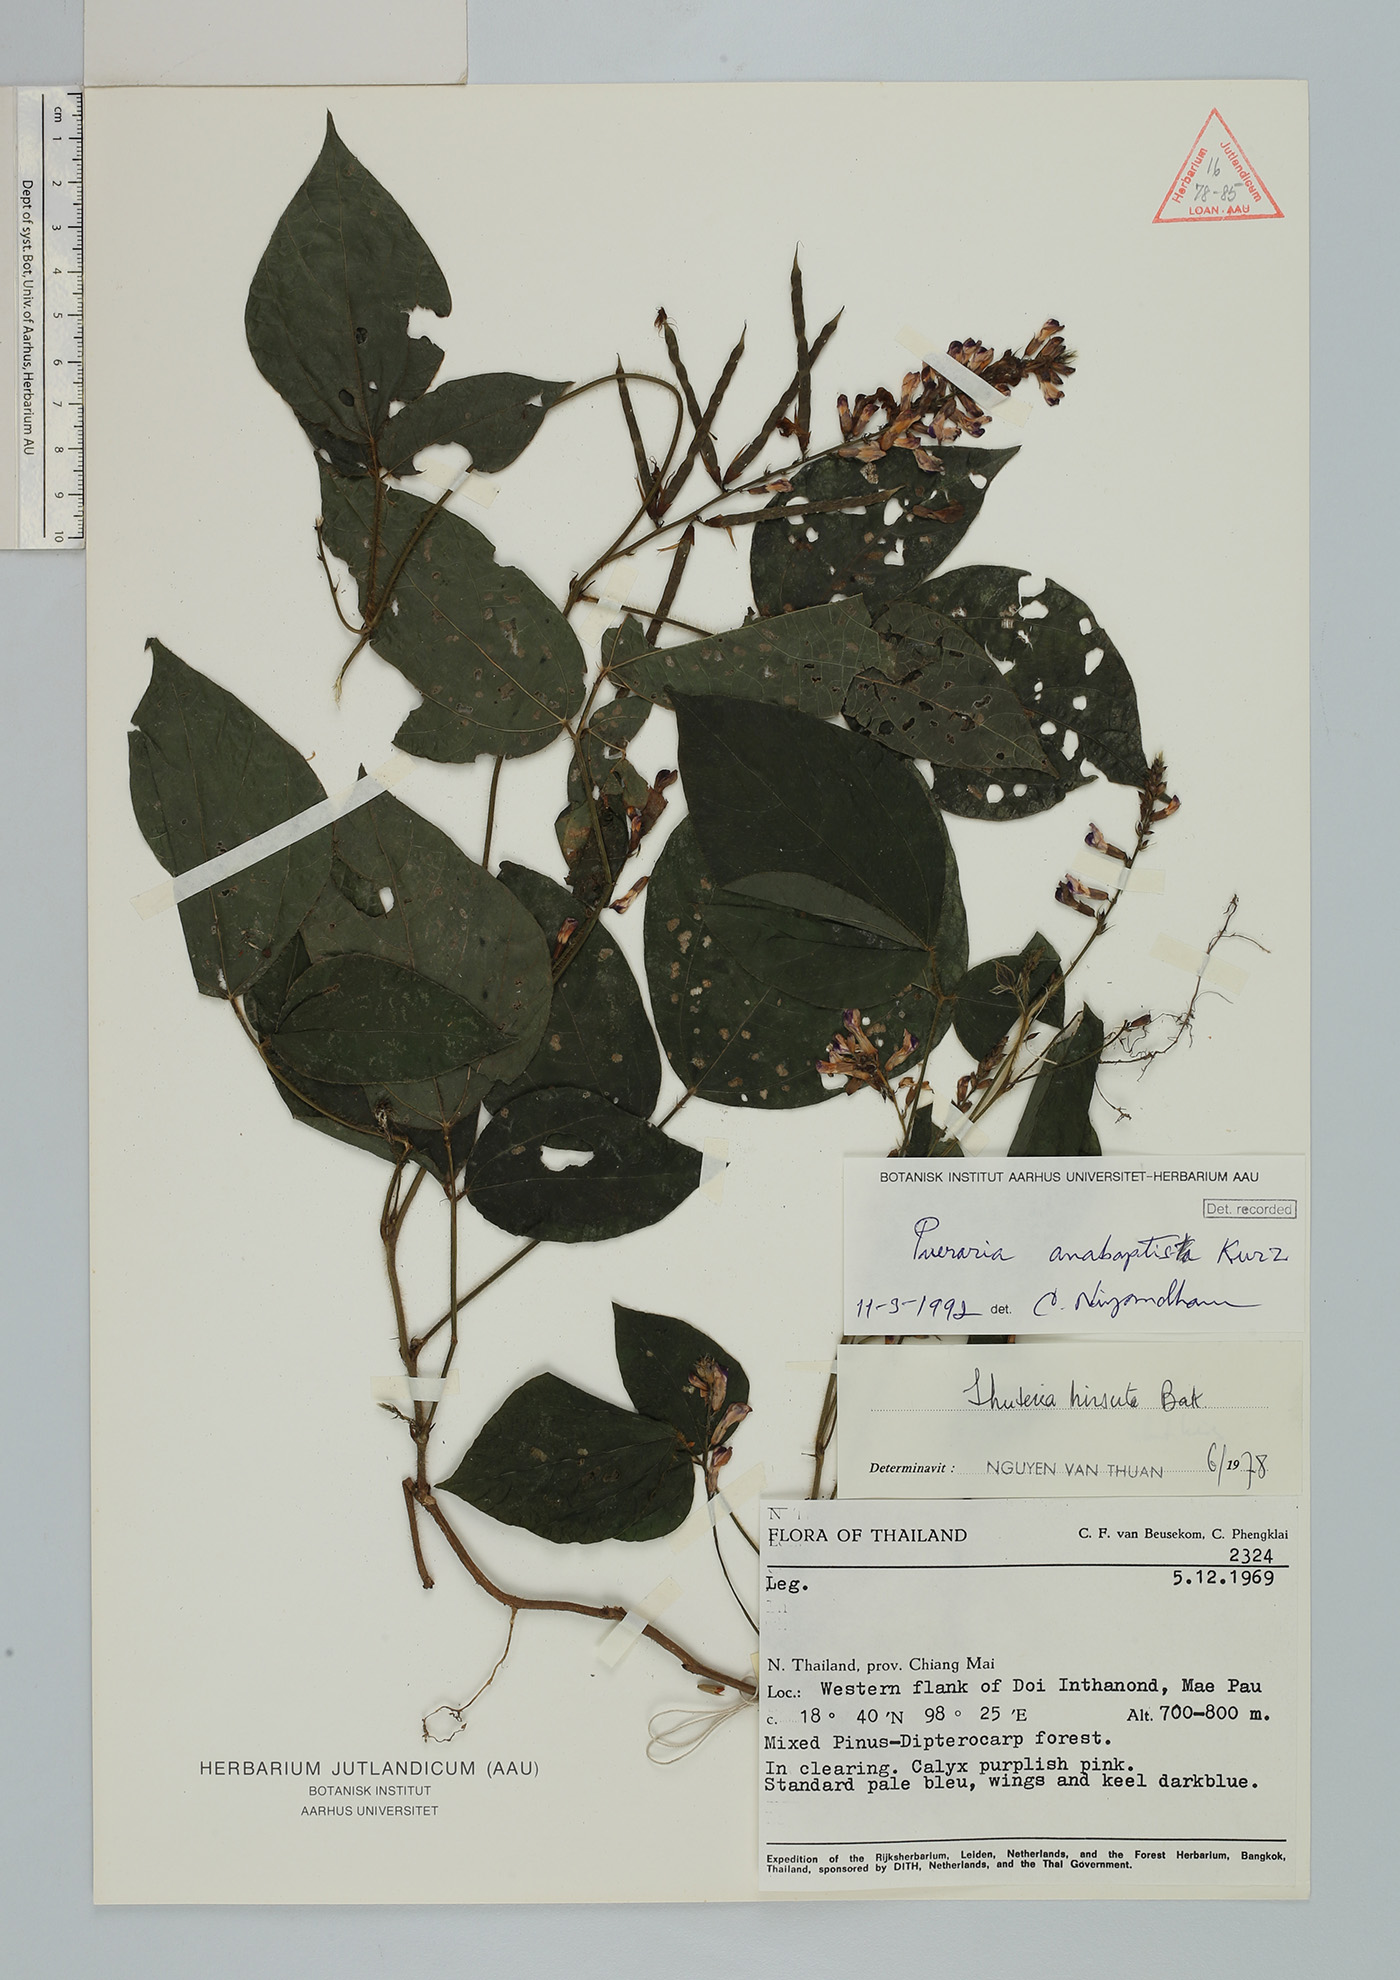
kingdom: Plantae
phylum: Tracheophyta
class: Magnoliopsida
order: Fabales
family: Fabaceae
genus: Harashuteria
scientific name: Harashuteria hirsuta
